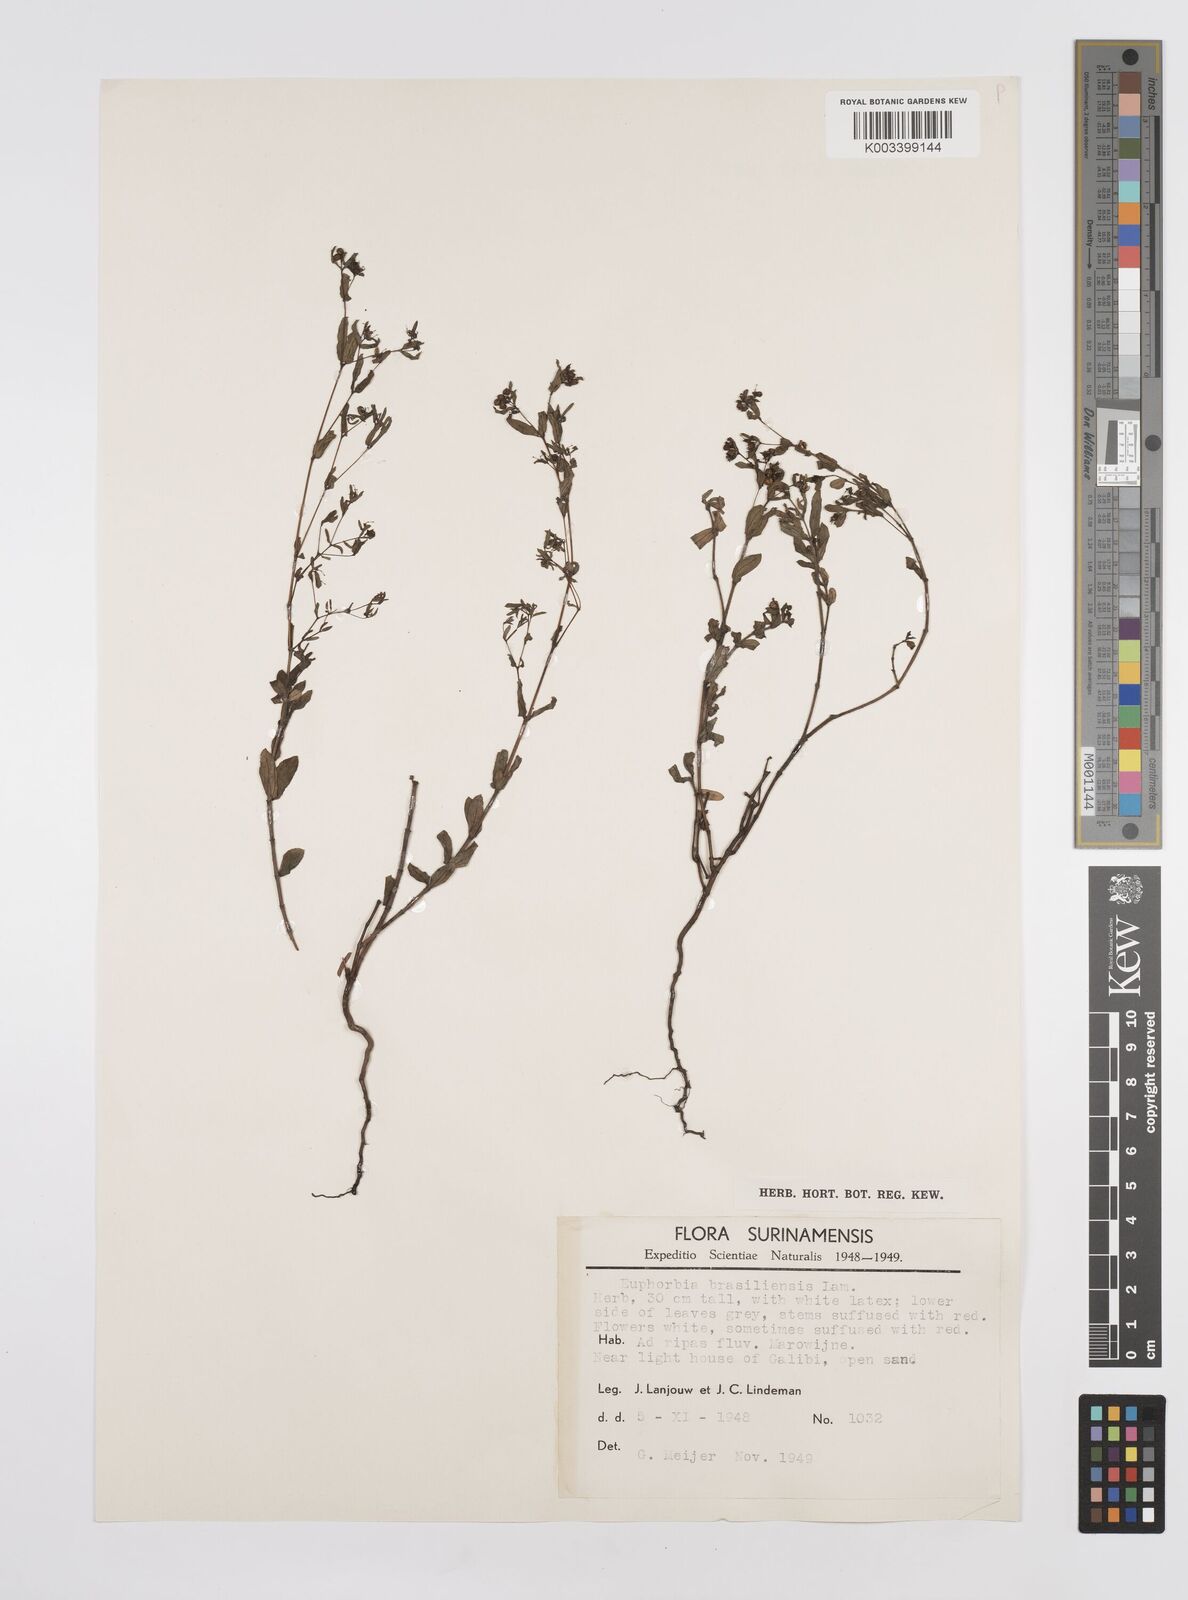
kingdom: Plantae
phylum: Tracheophyta
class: Magnoliopsida
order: Malpighiales
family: Euphorbiaceae
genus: Euphorbia
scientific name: Euphorbia hyssopifolia
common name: Hyssopleaf sandmat
